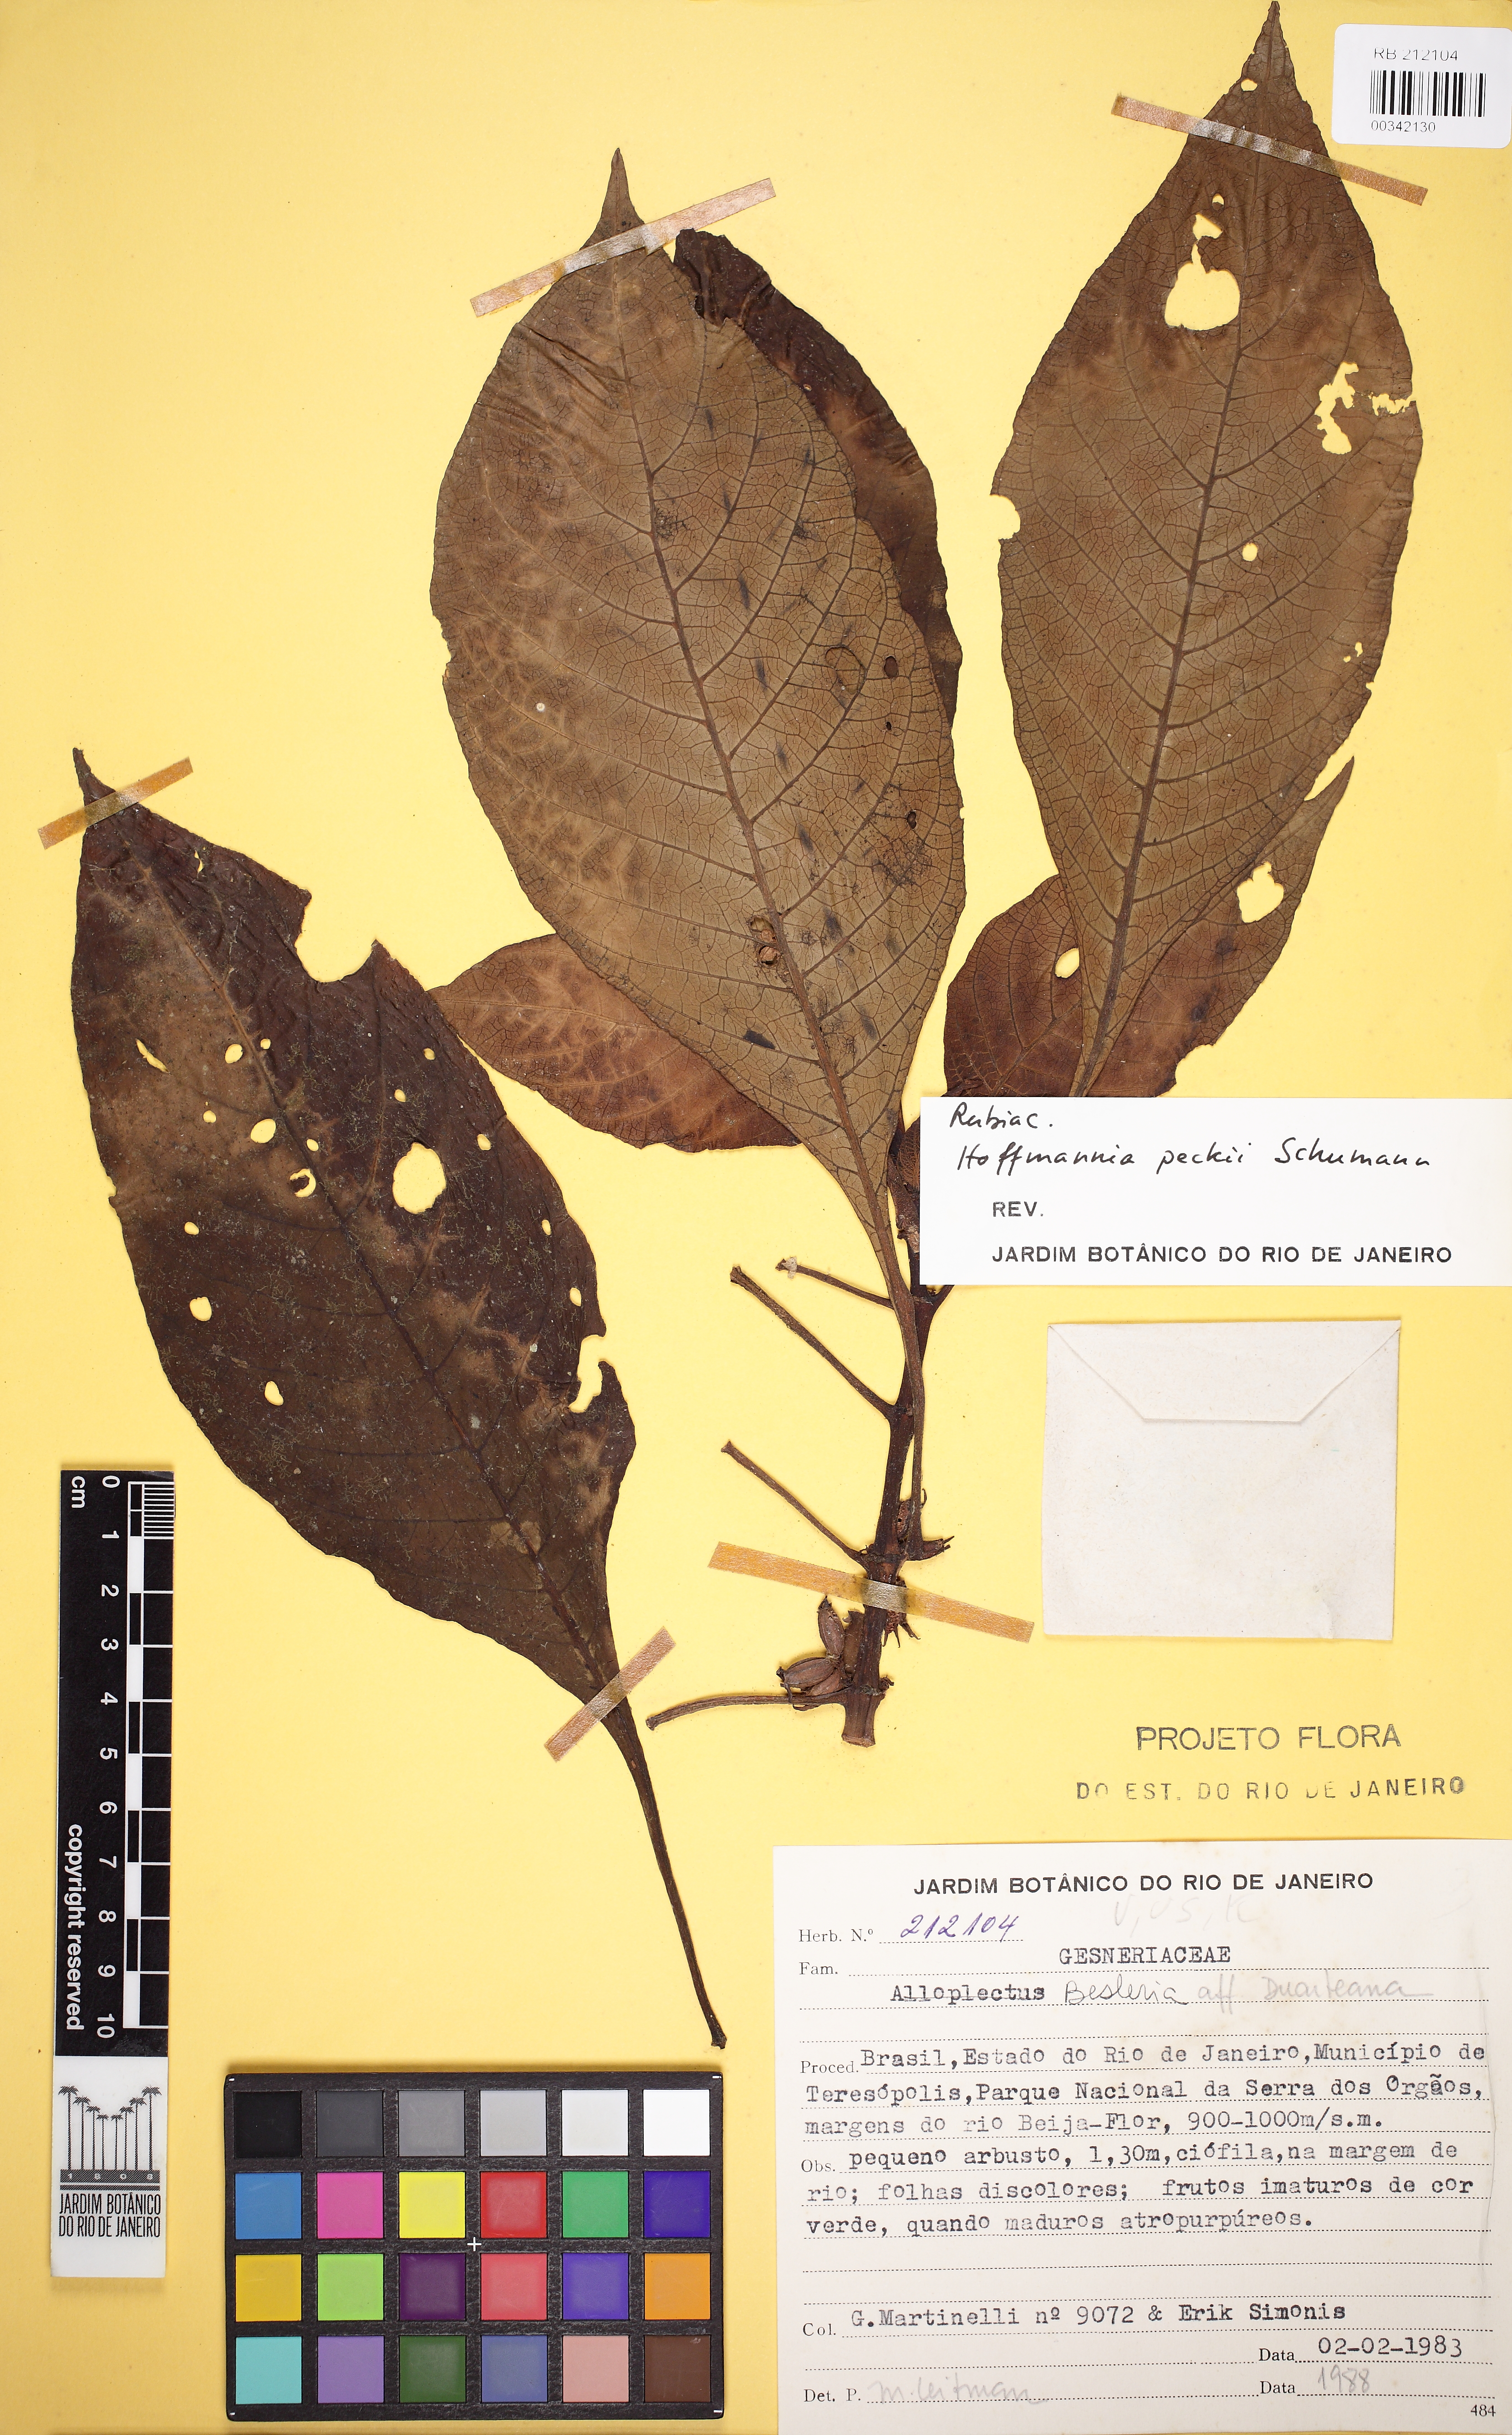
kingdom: Plantae
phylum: Tracheophyta
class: Magnoliopsida
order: Gentianales
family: Rubiaceae
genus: Hoffmannia
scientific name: Hoffmannia peckii
